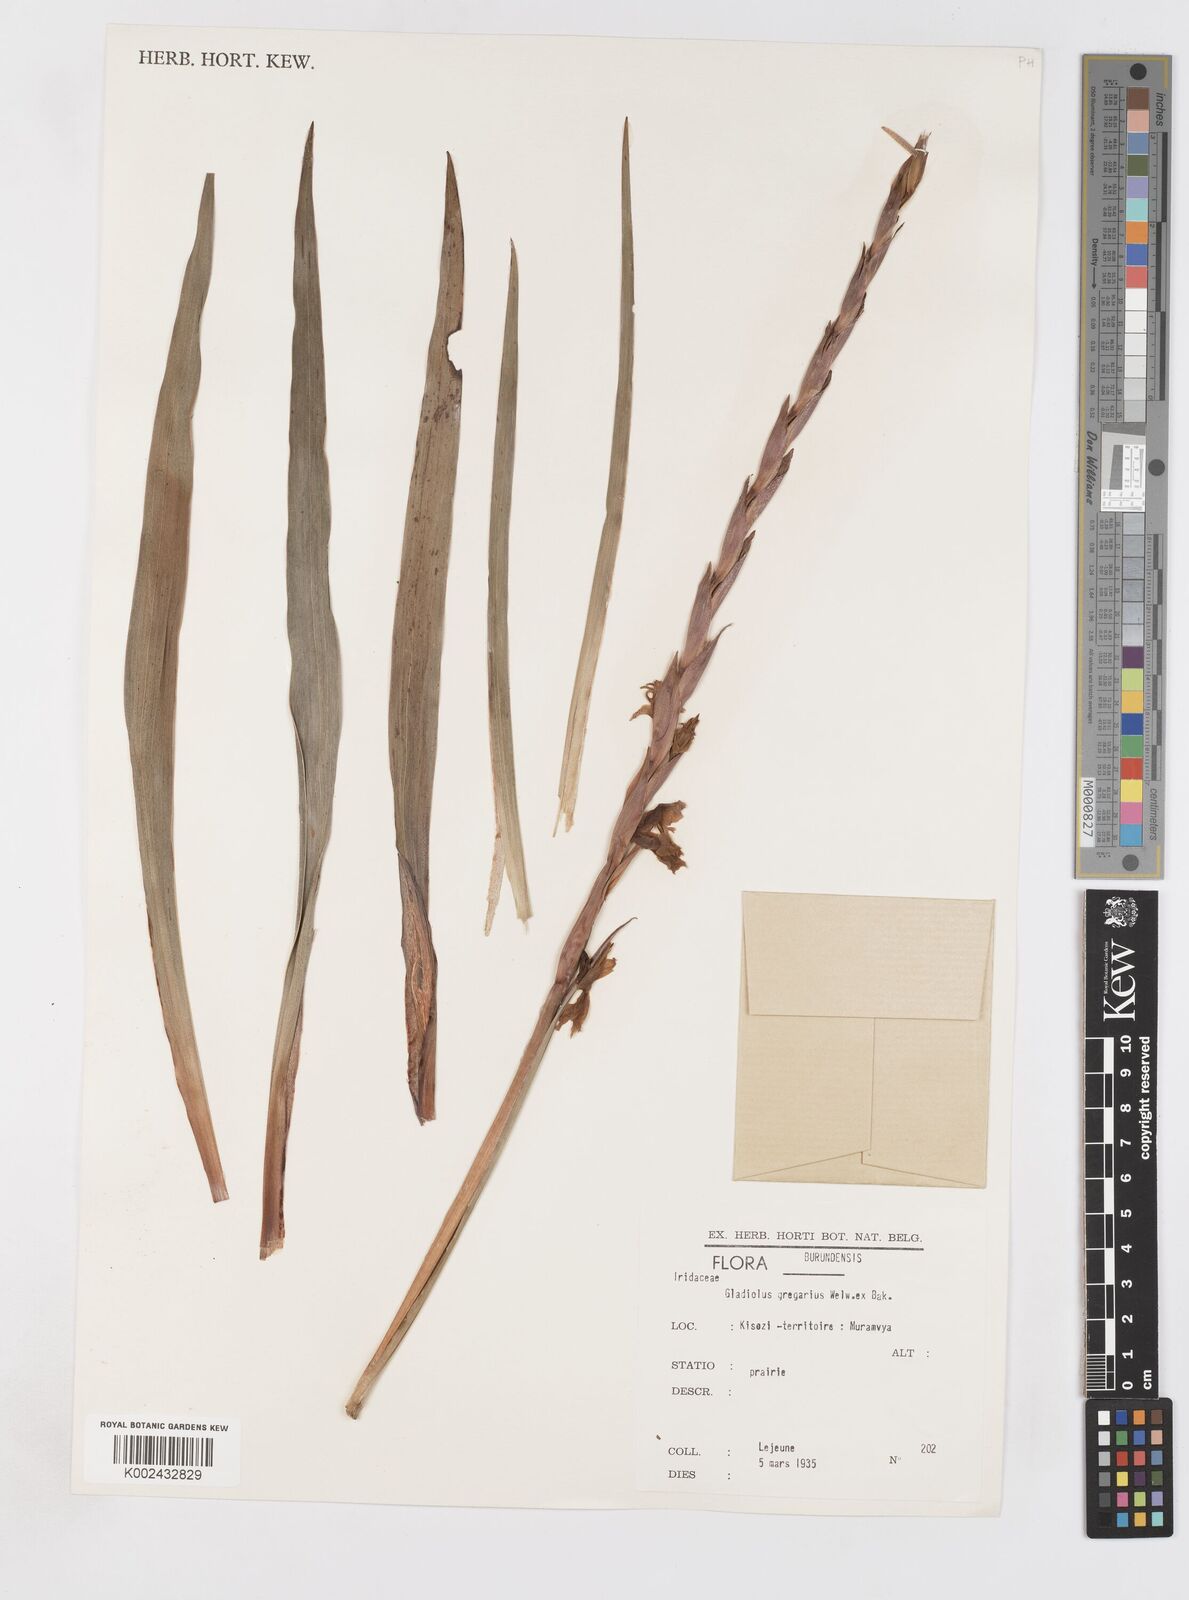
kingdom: Plantae
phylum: Tracheophyta
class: Liliopsida
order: Asparagales
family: Iridaceae
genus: Gladiolus
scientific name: Gladiolus gregarius
